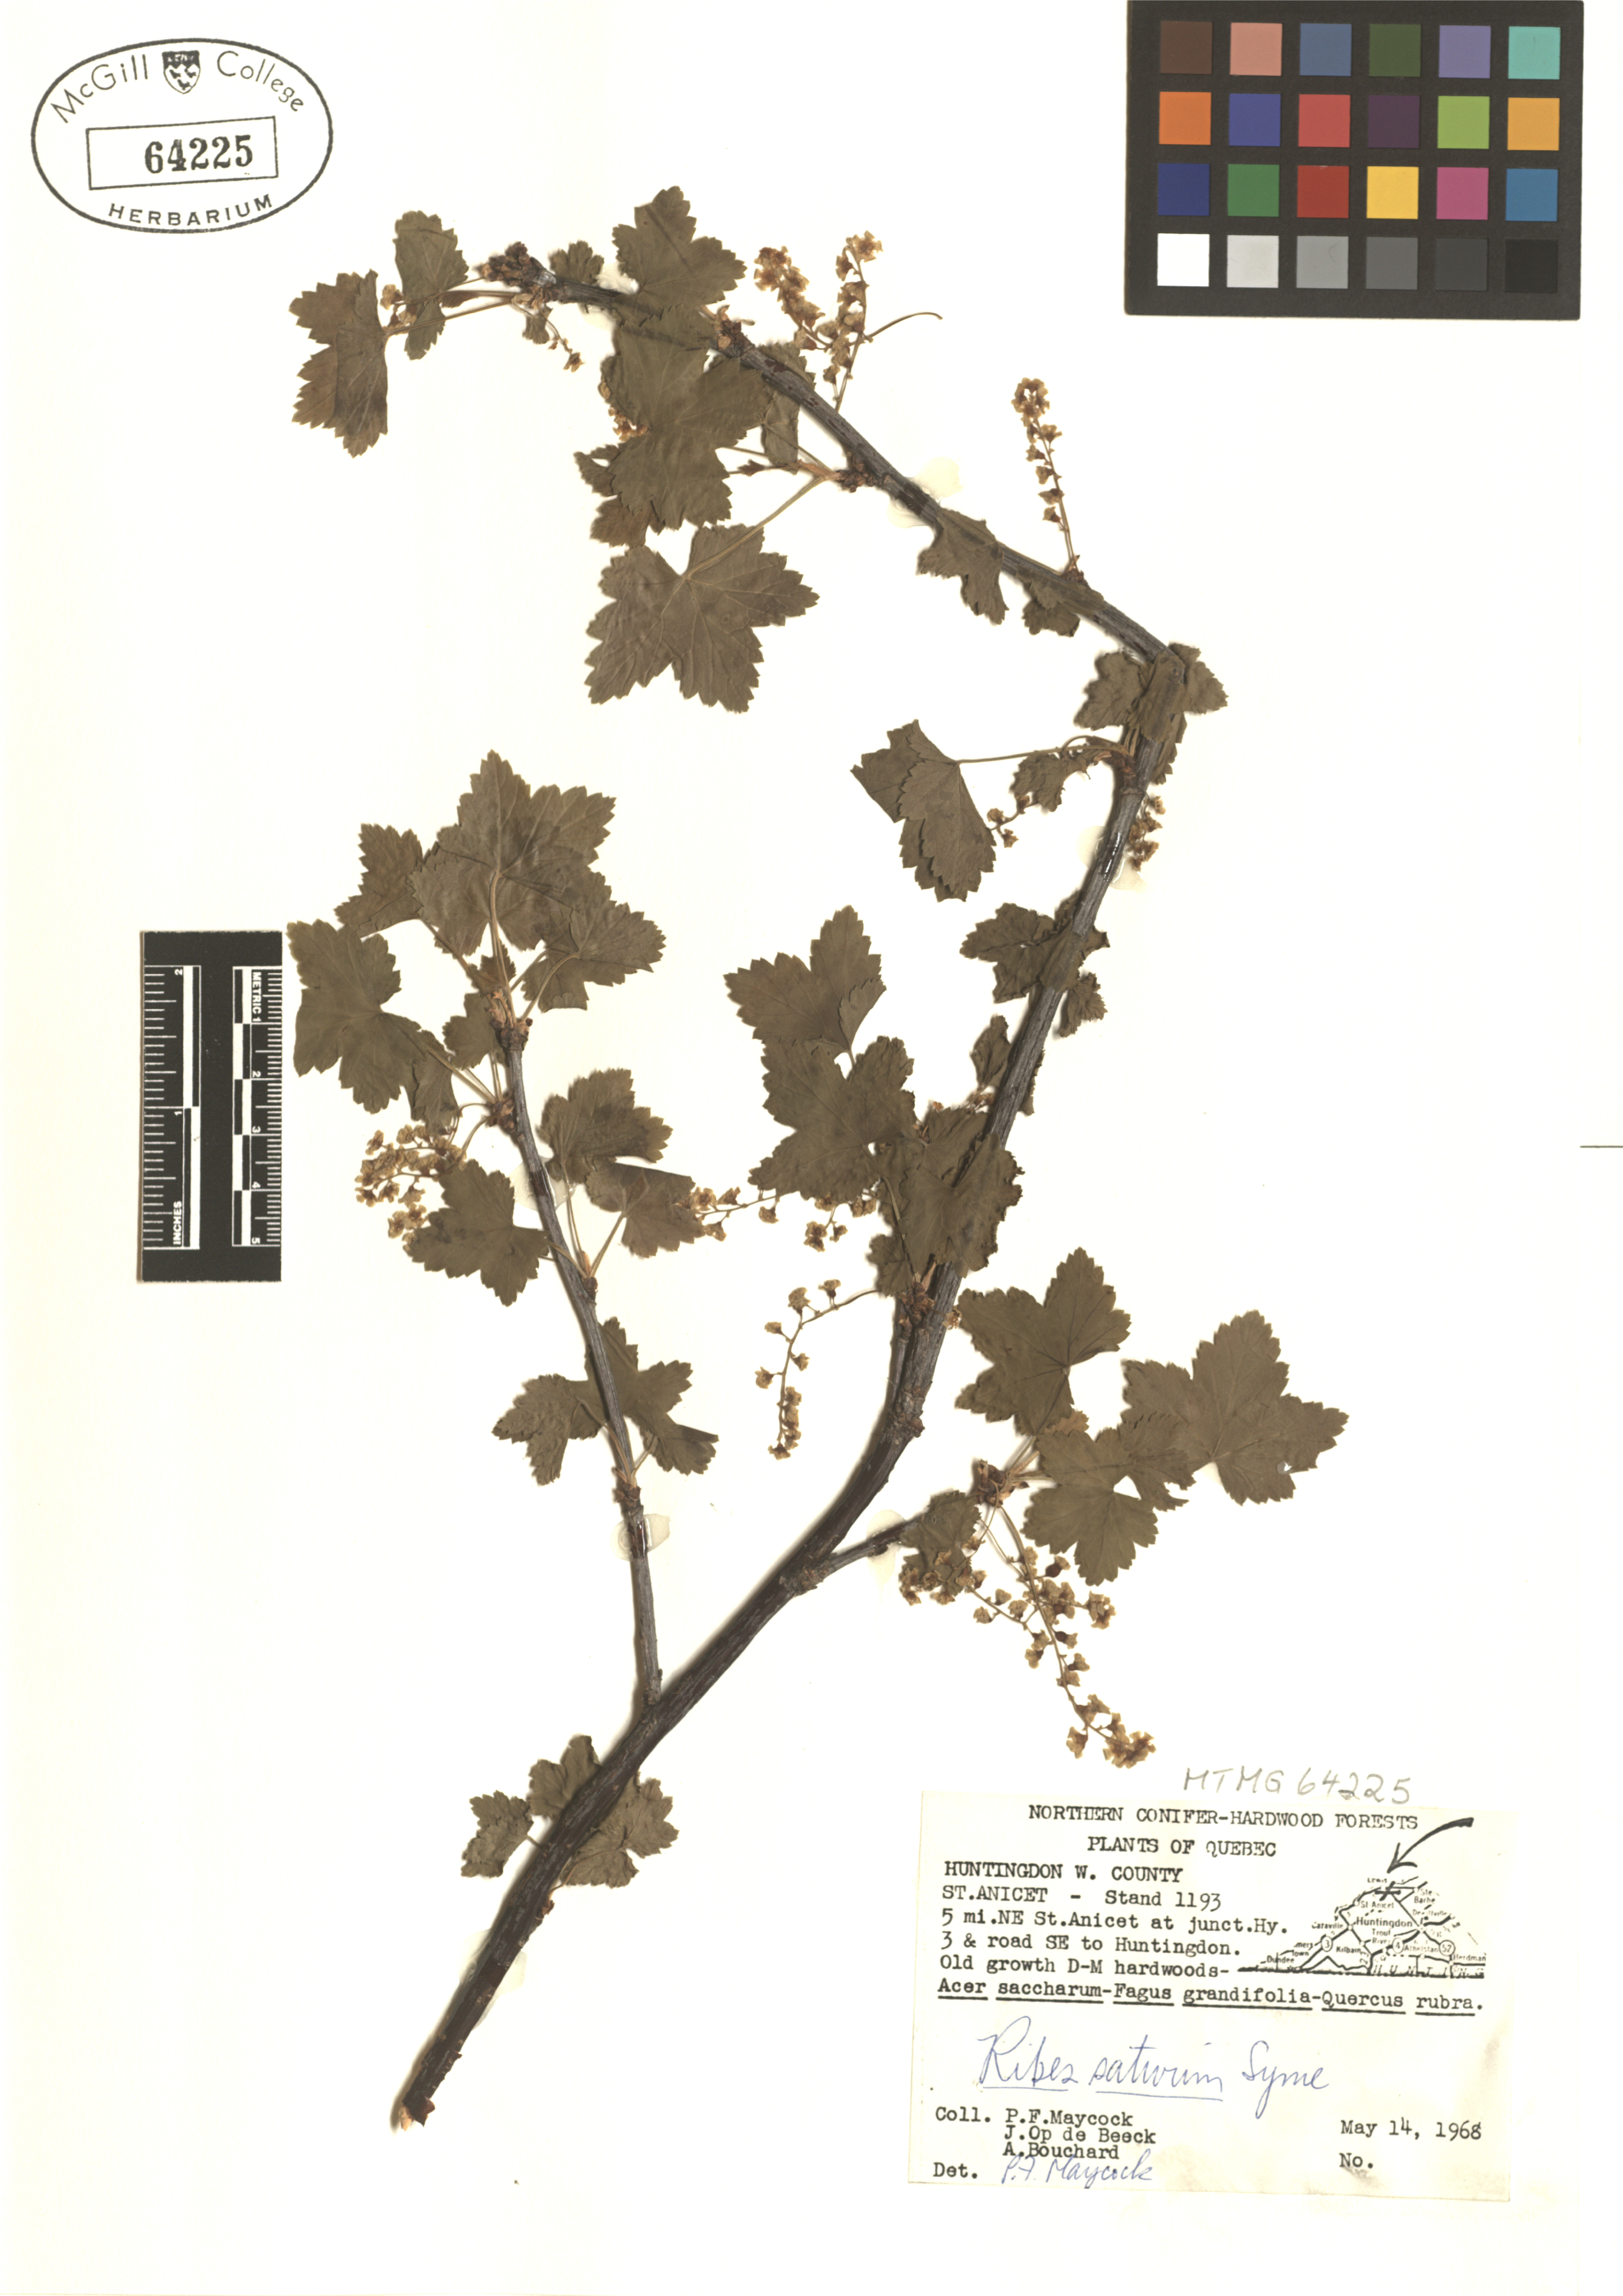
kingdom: Plantae
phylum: Tracheophyta
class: Magnoliopsida
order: Saxifragales
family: Grossulariaceae
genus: Ribes
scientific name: Ribes rubrum
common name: Red currant
